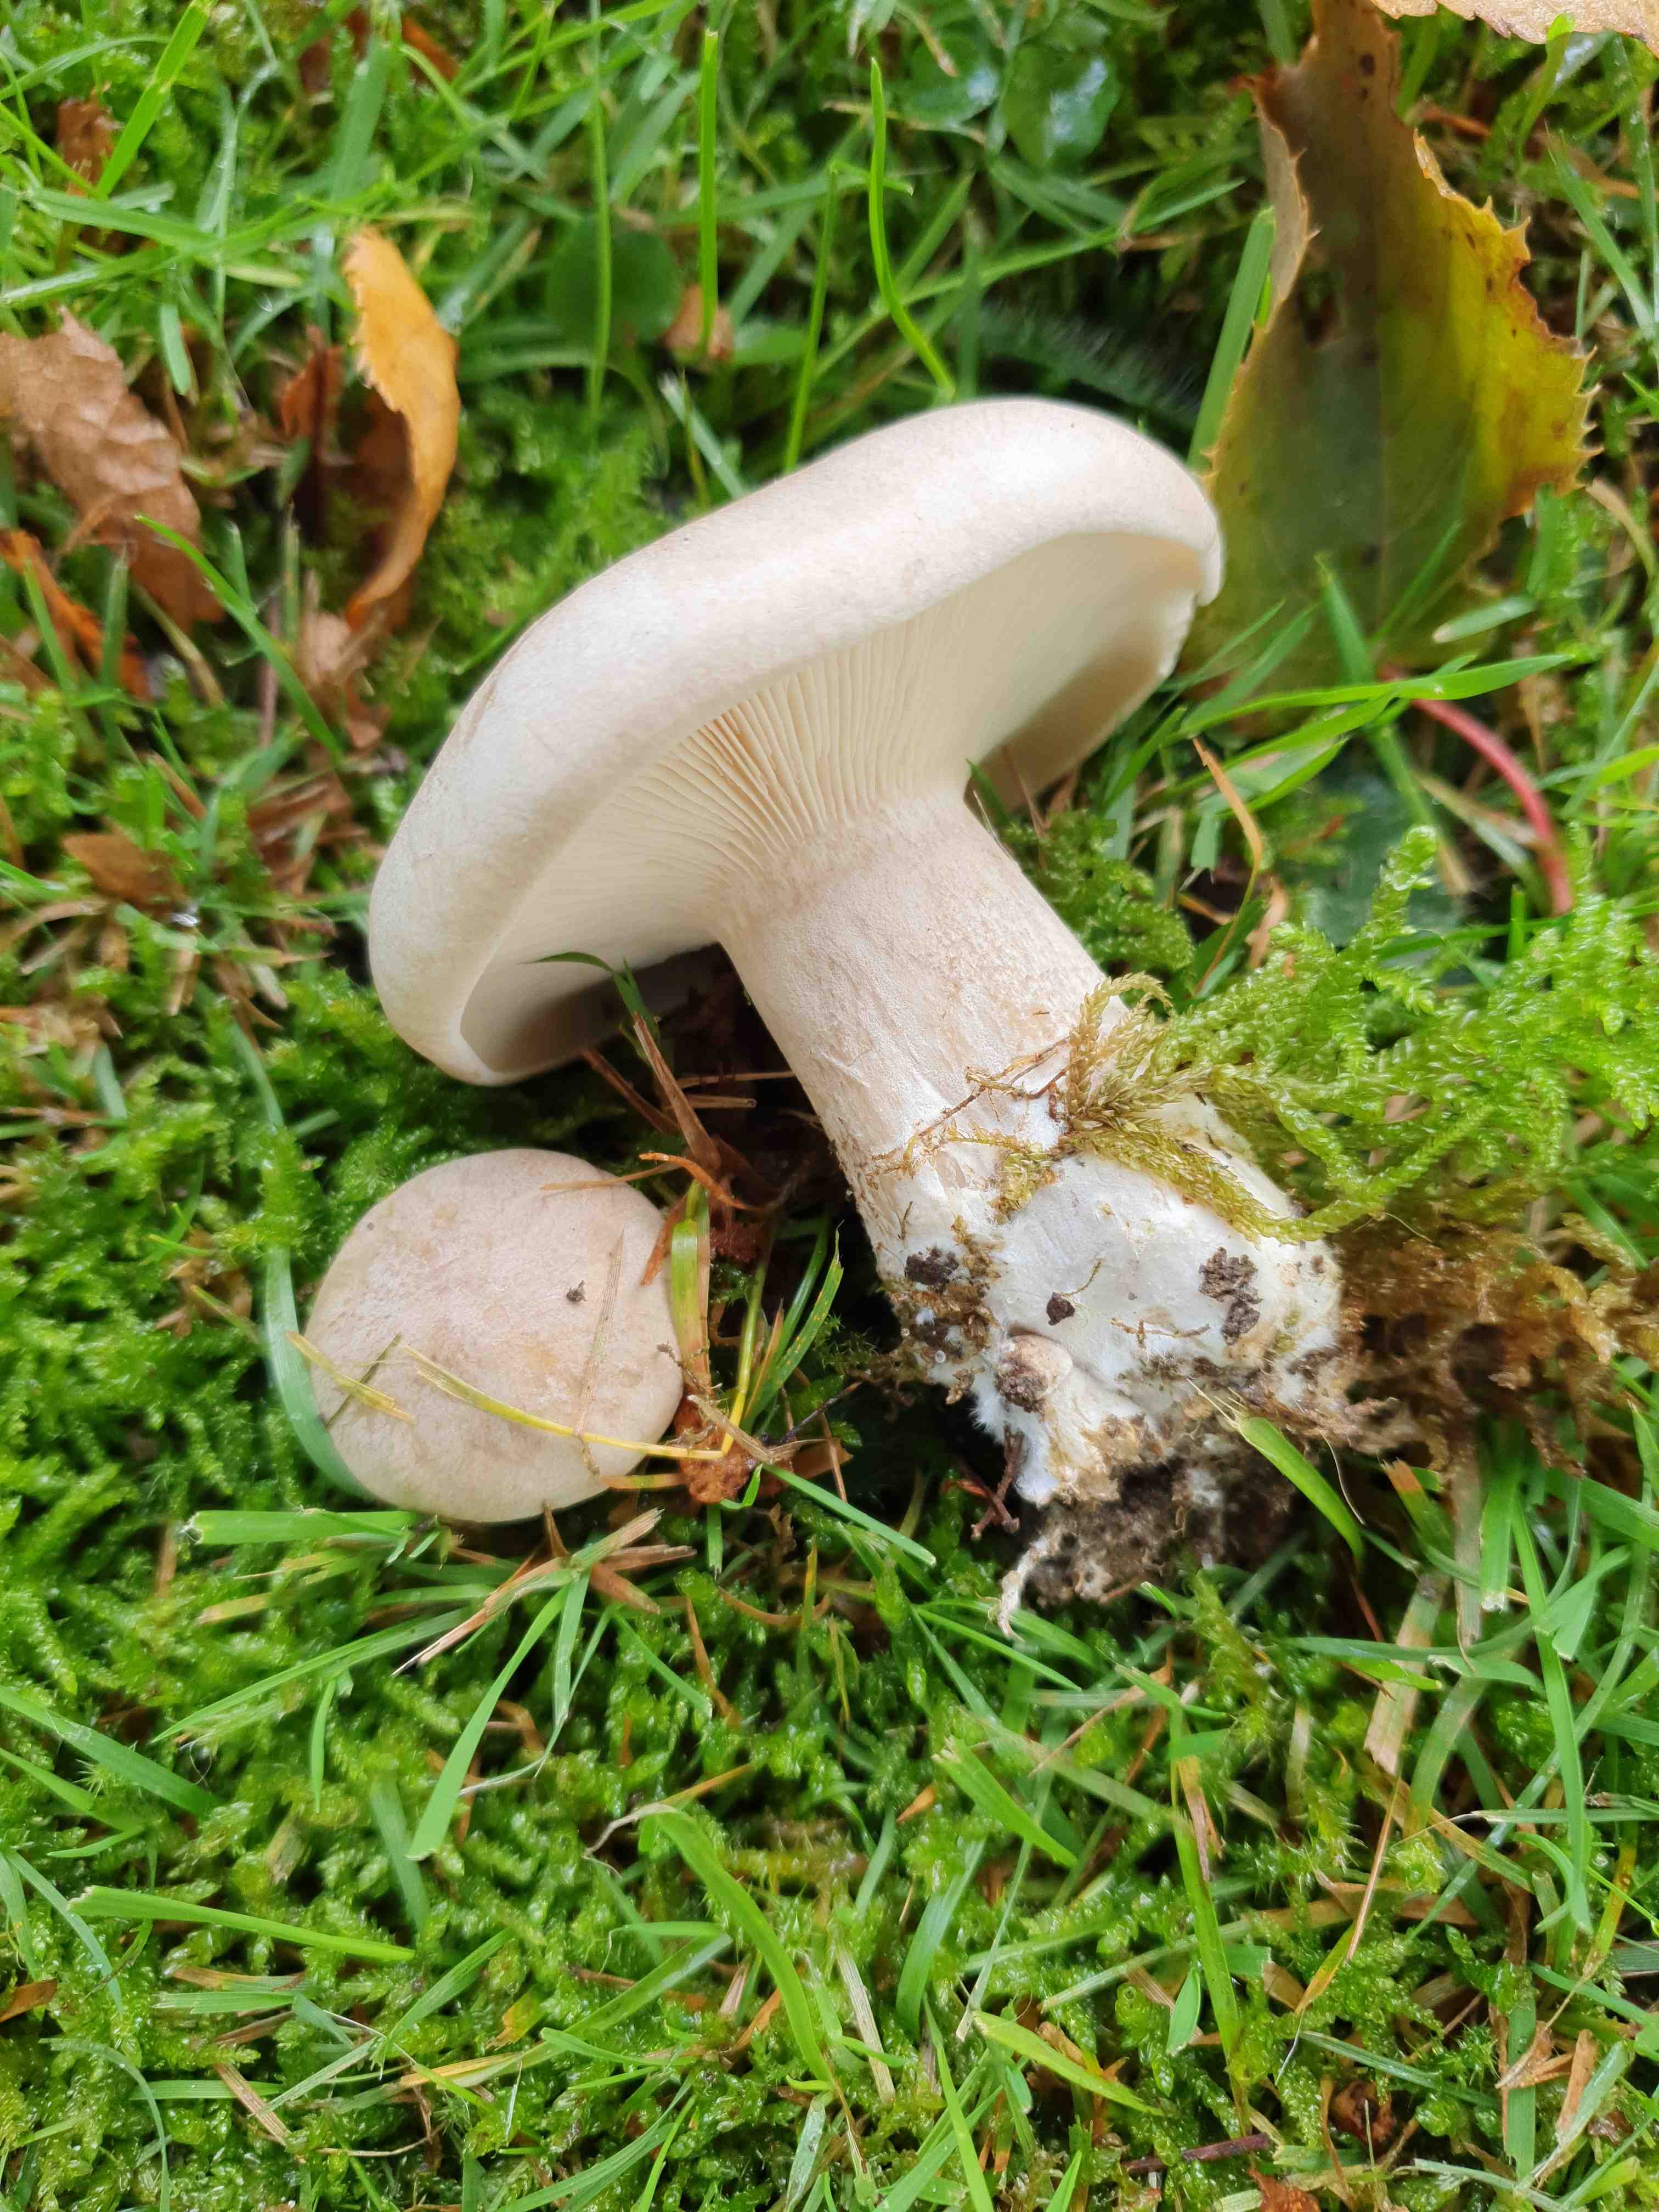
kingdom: Fungi
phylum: Basidiomycota
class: Agaricomycetes
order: Agaricales
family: Tricholomataceae
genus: Clitocybe
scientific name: Clitocybe nebularis
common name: tåge-tragthat
